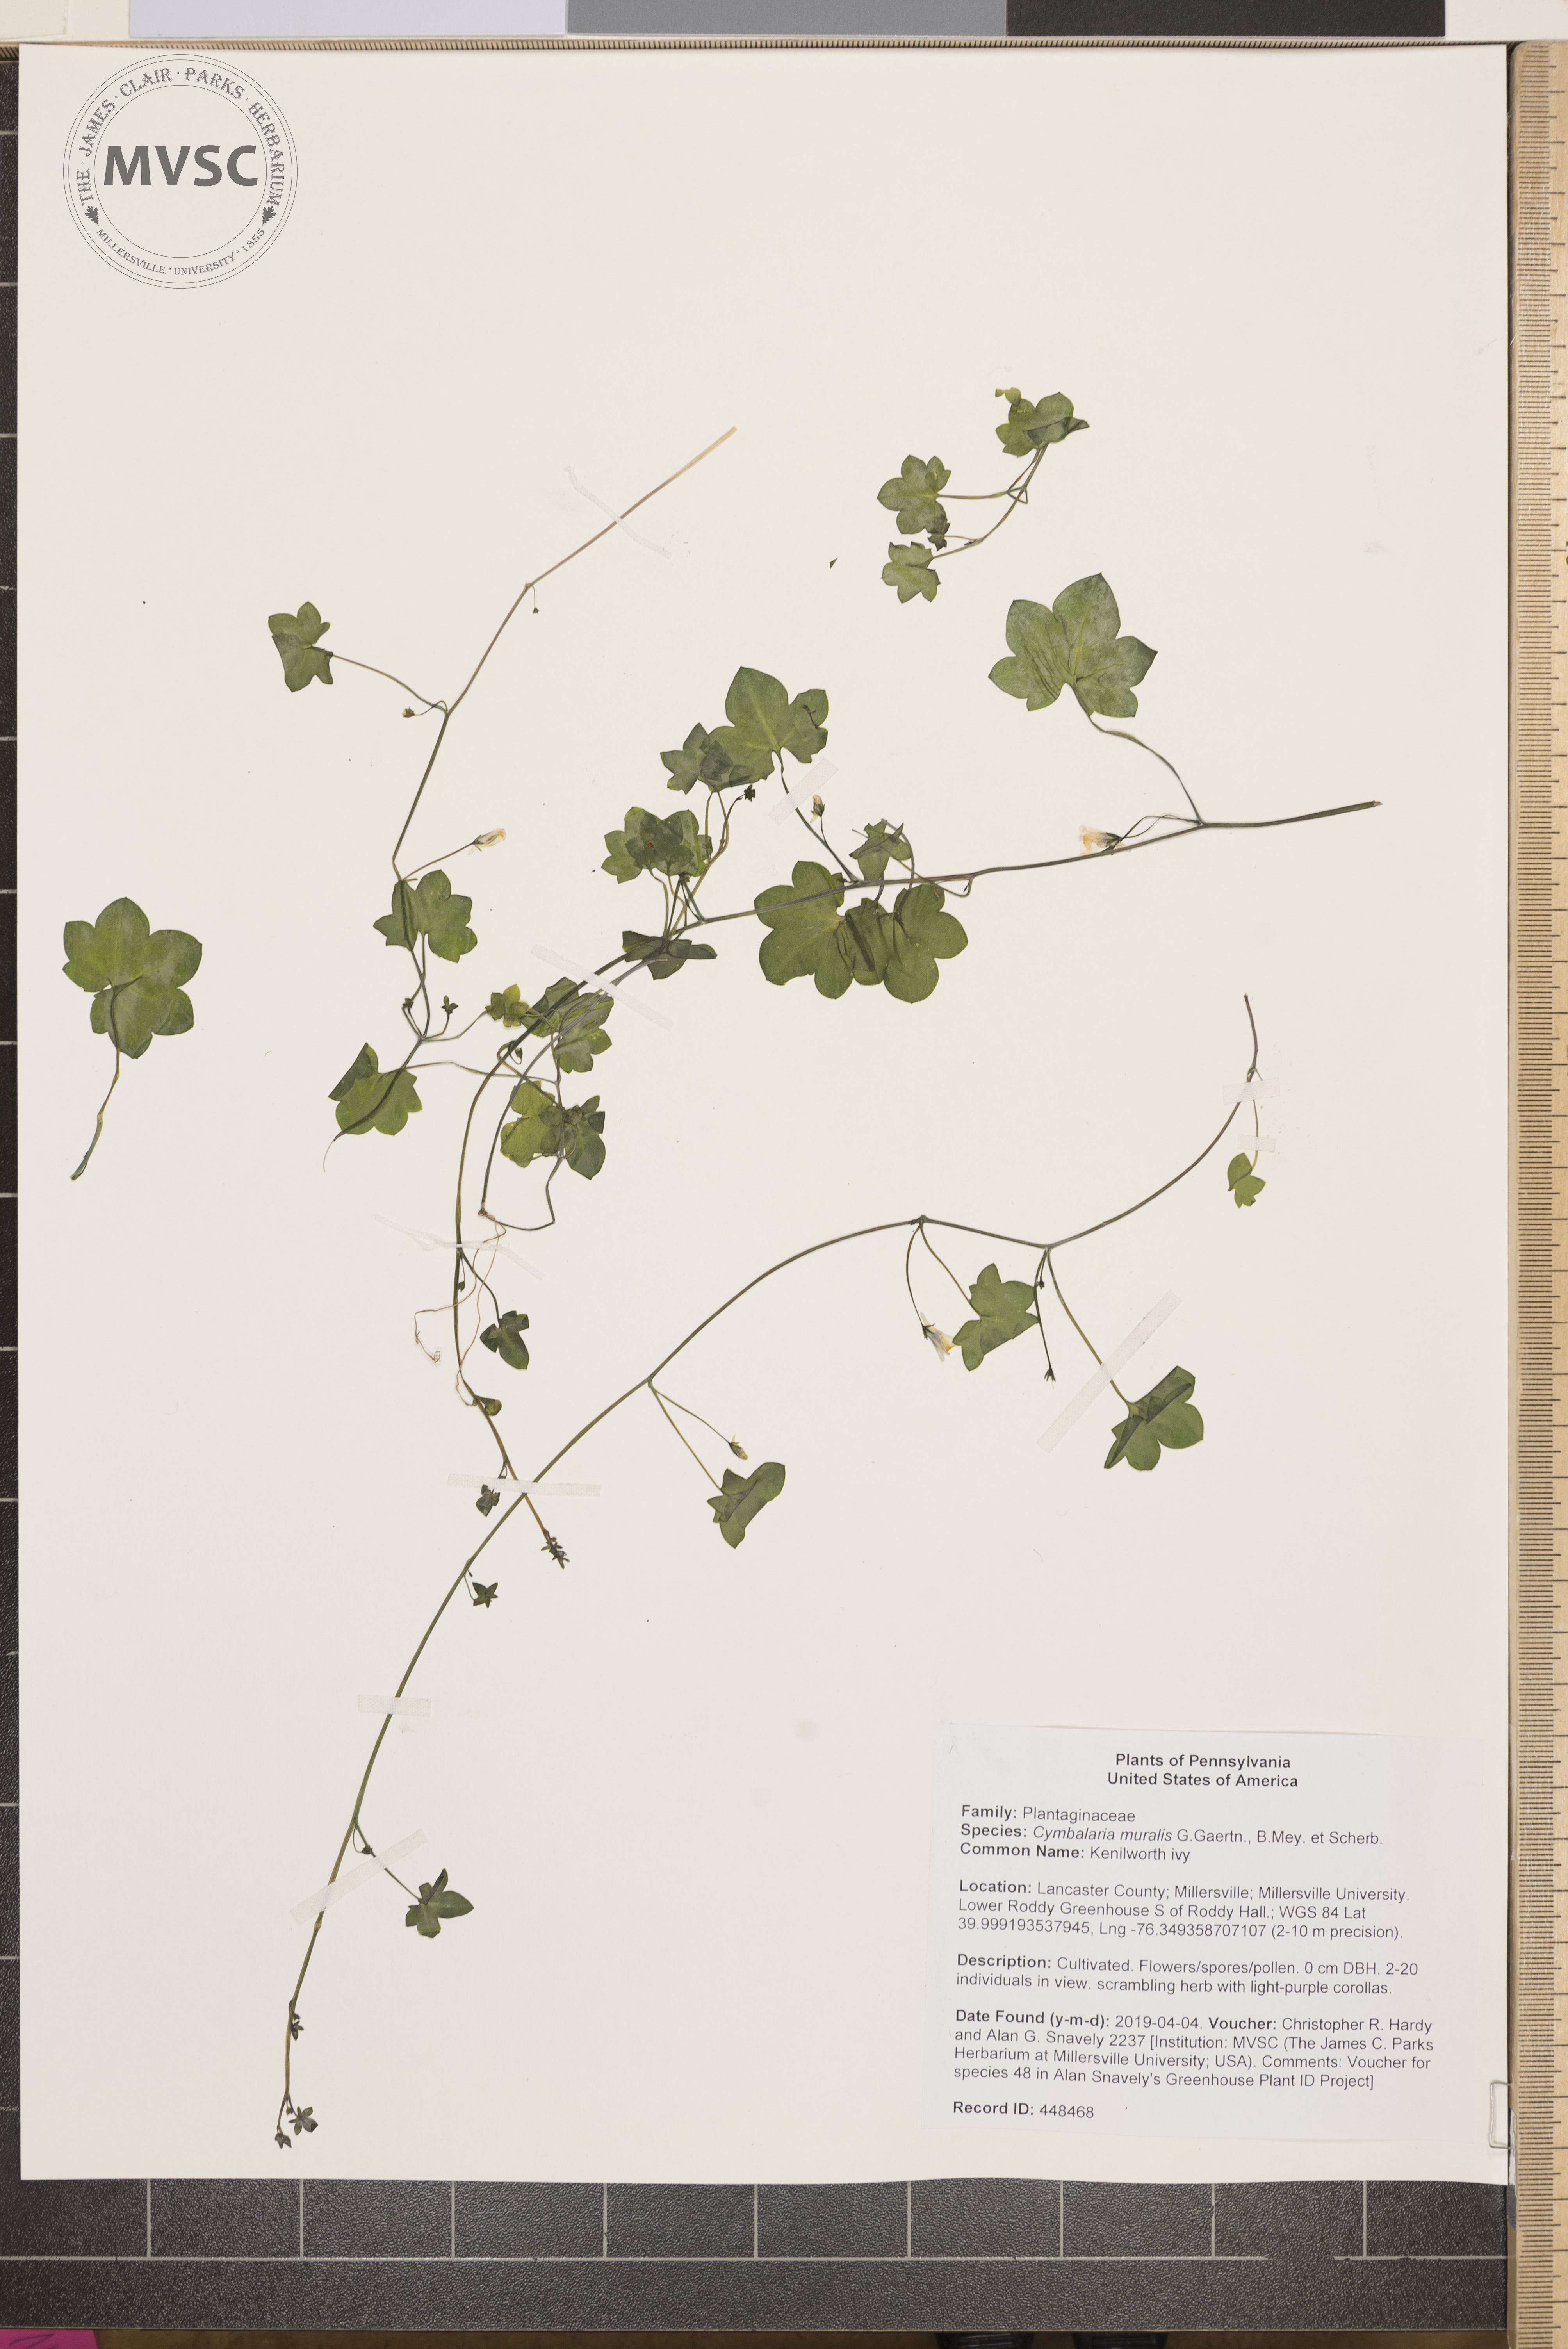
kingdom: Plantae
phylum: Tracheophyta
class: Magnoliopsida
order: Lamiales
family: Plantaginaceae
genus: Cymbalaria
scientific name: Cymbalaria muralis
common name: Kenilworth ivy
